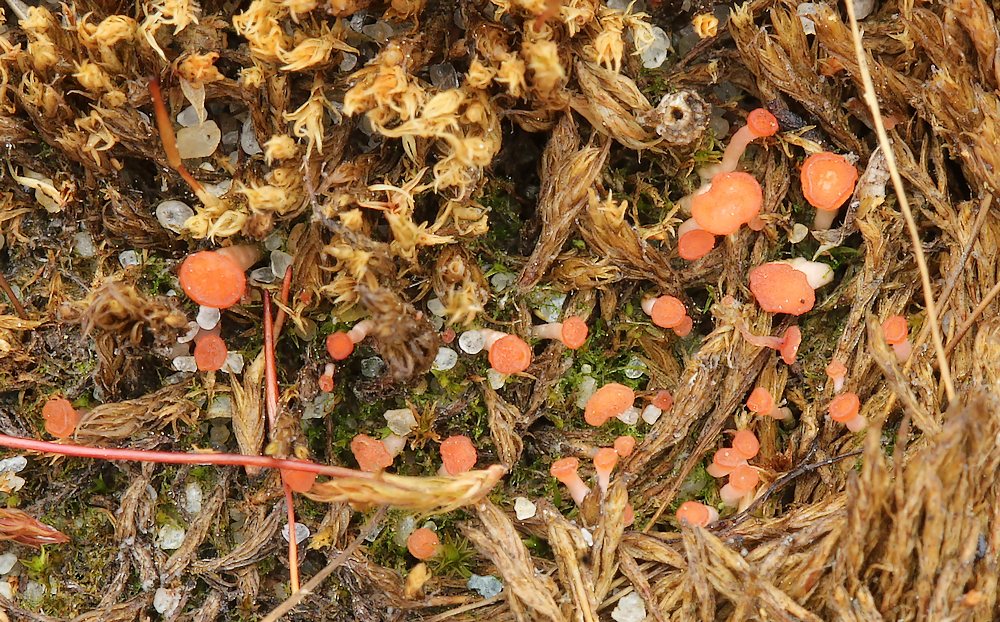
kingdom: Fungi
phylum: Ascomycota
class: Leotiomycetes
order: Helotiales
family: Hyaloscyphaceae
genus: Roseodiscus
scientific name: Roseodiscus formosus
